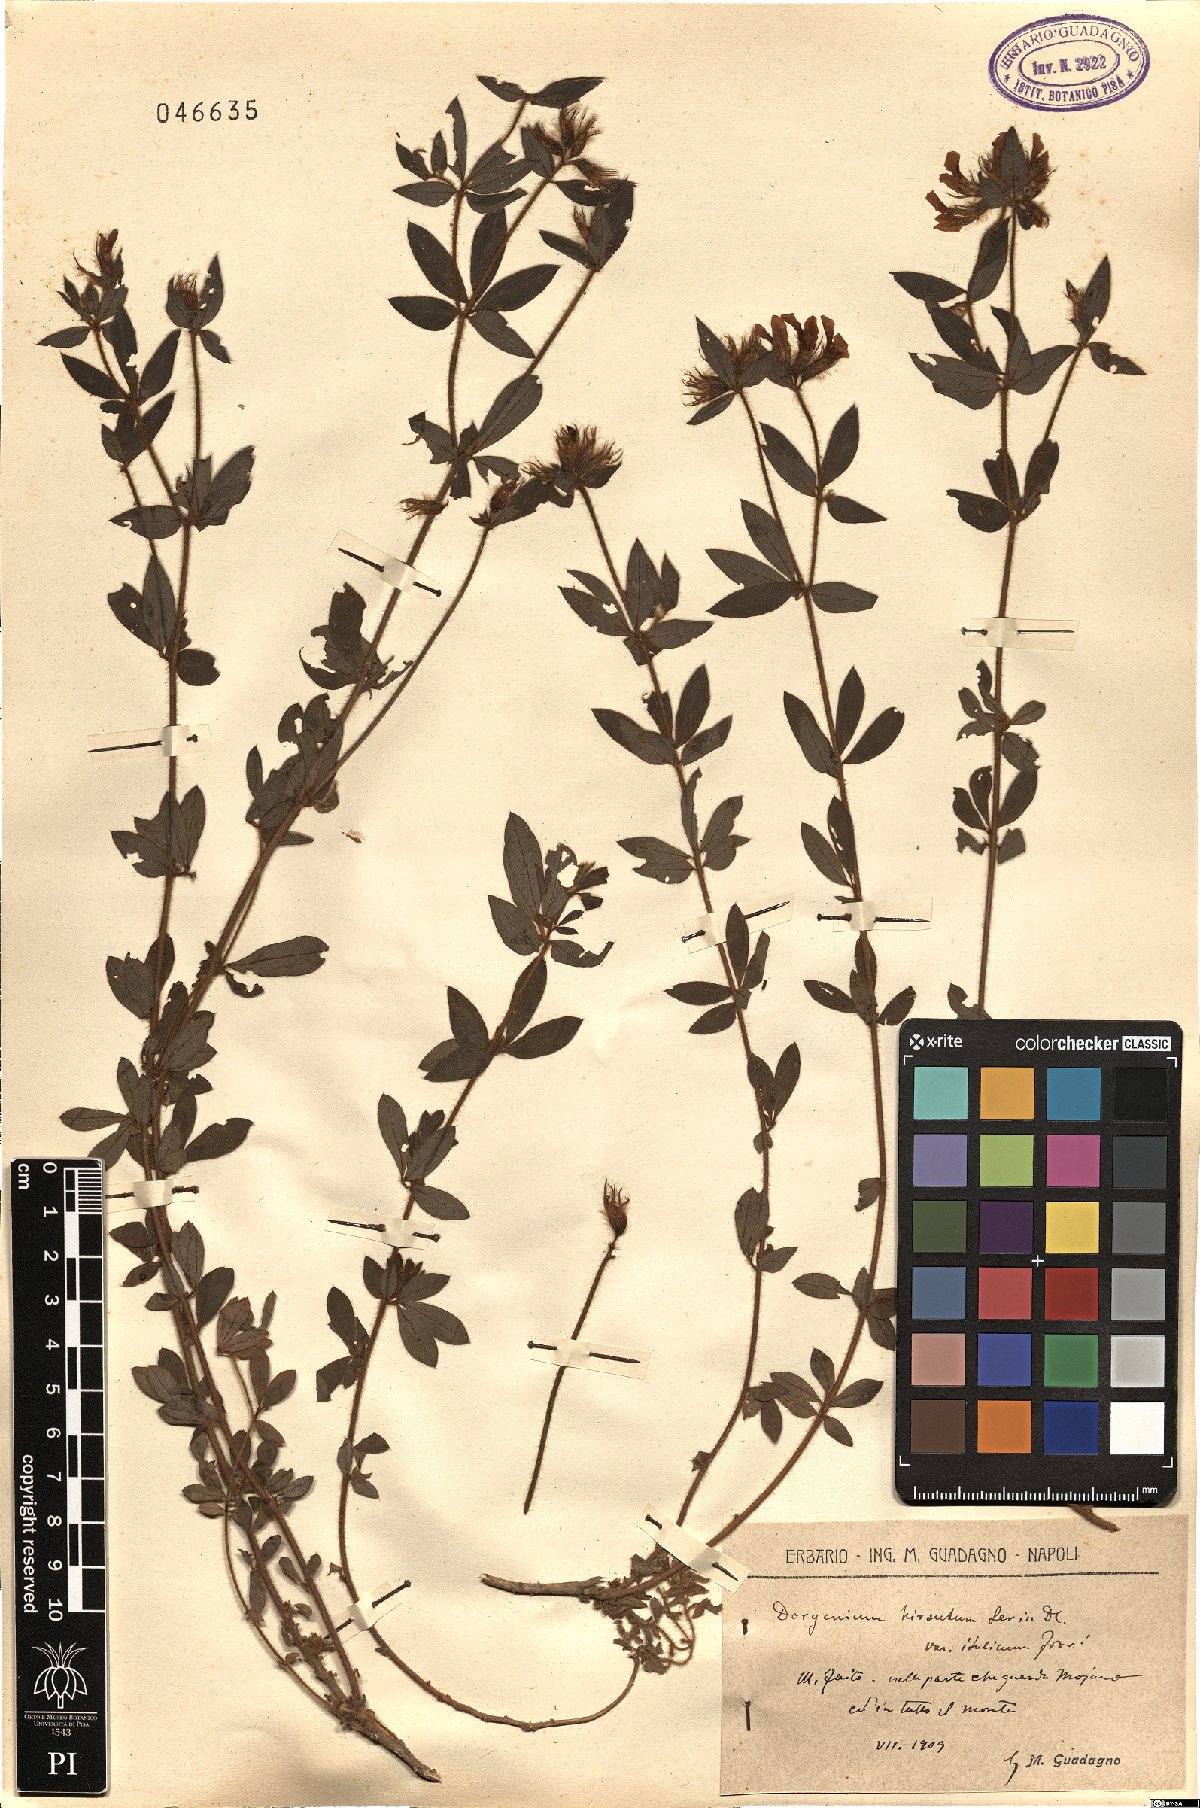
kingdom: Plantae
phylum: Tracheophyta
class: Magnoliopsida
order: Fabales
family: Fabaceae
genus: Lotus
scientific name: Lotus hirsutus
